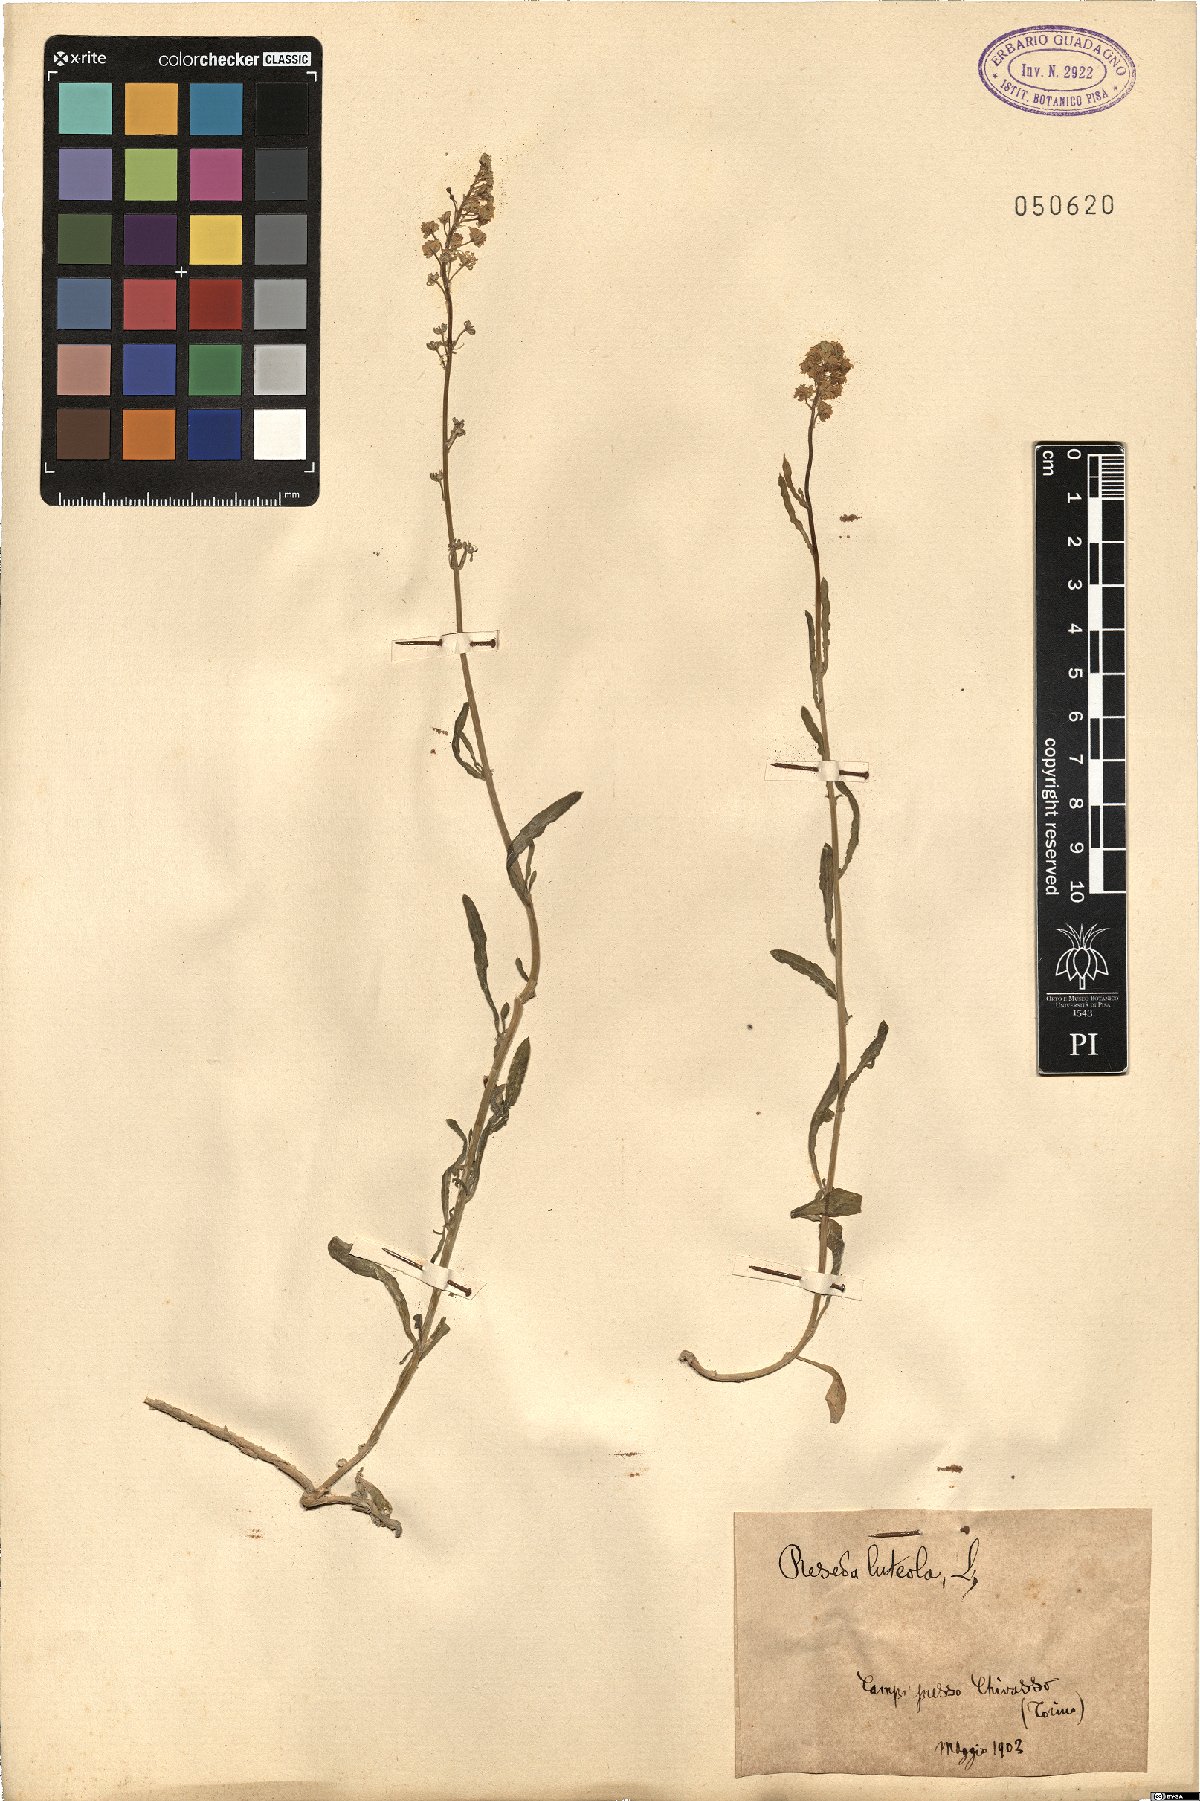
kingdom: Plantae
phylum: Tracheophyta
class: Magnoliopsida
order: Brassicales
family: Resedaceae
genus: Reseda
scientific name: Reseda luteola
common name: Weld
